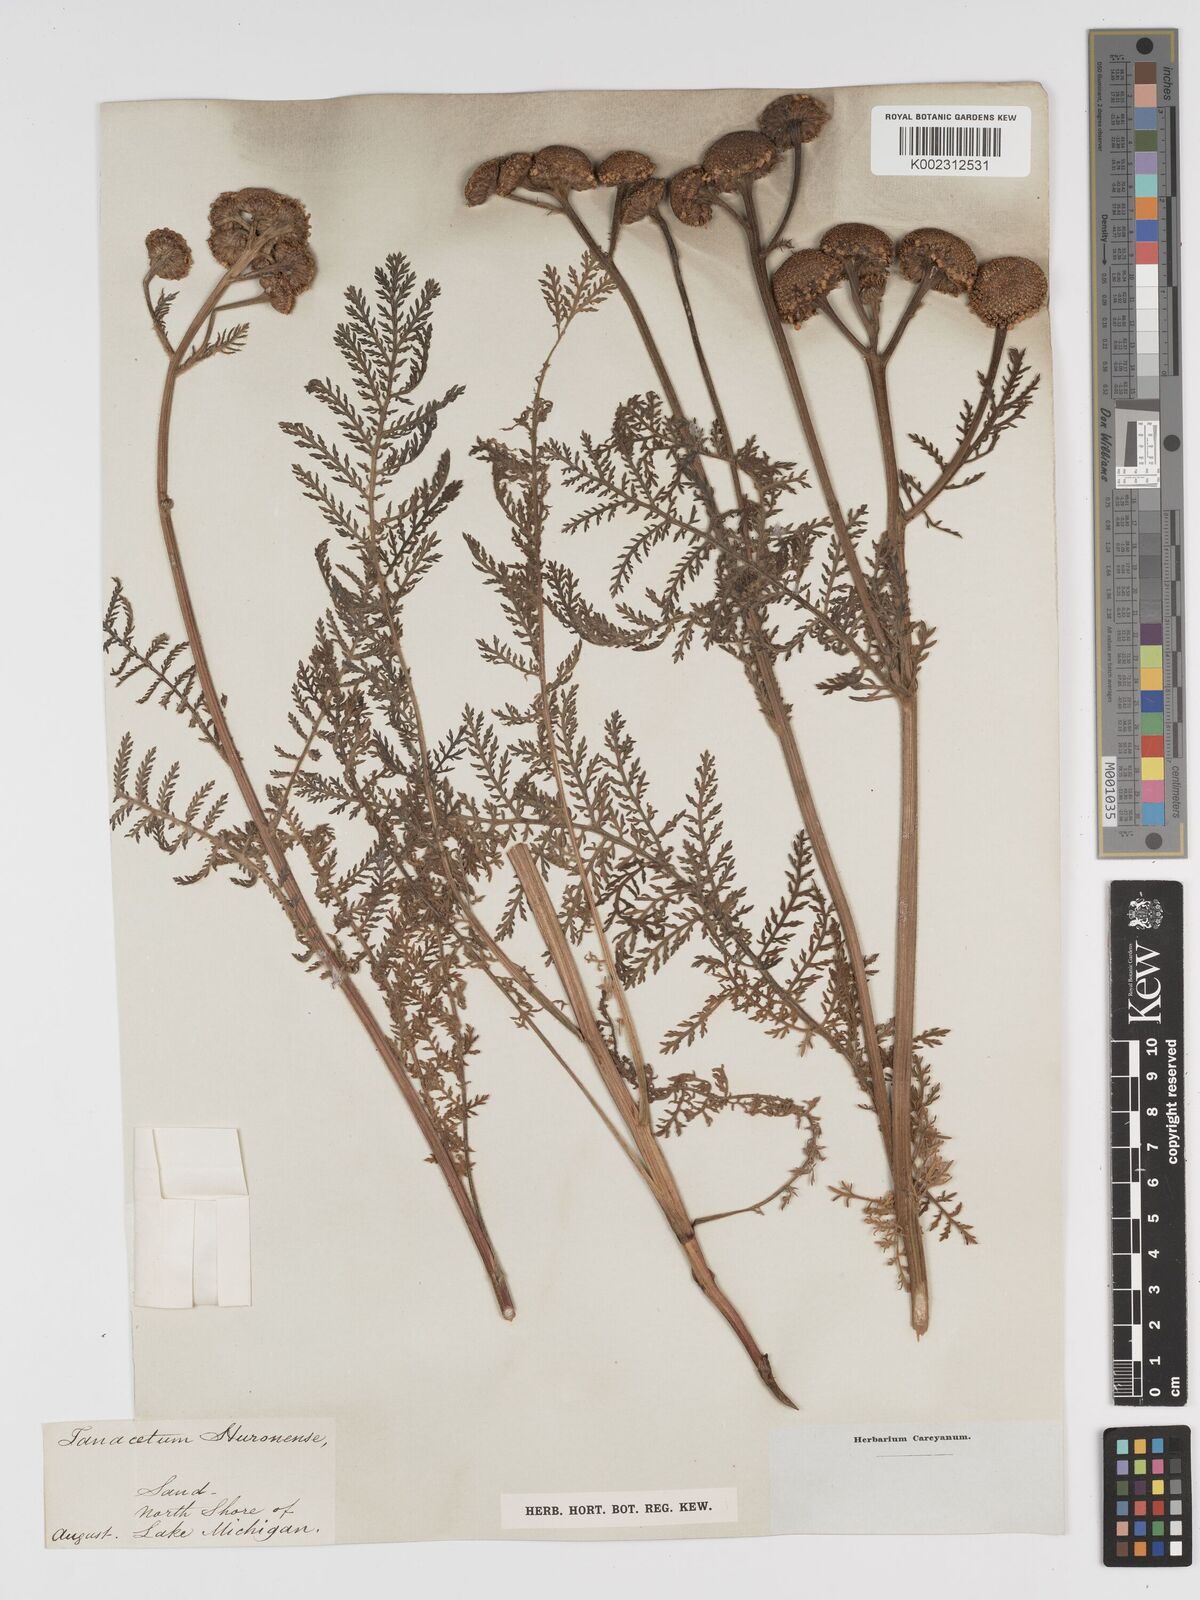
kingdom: Plantae
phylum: Tracheophyta
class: Magnoliopsida
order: Asterales
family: Asteraceae
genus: Tanacetum
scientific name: Tanacetum bipinnatum
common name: Dwarf tansy
